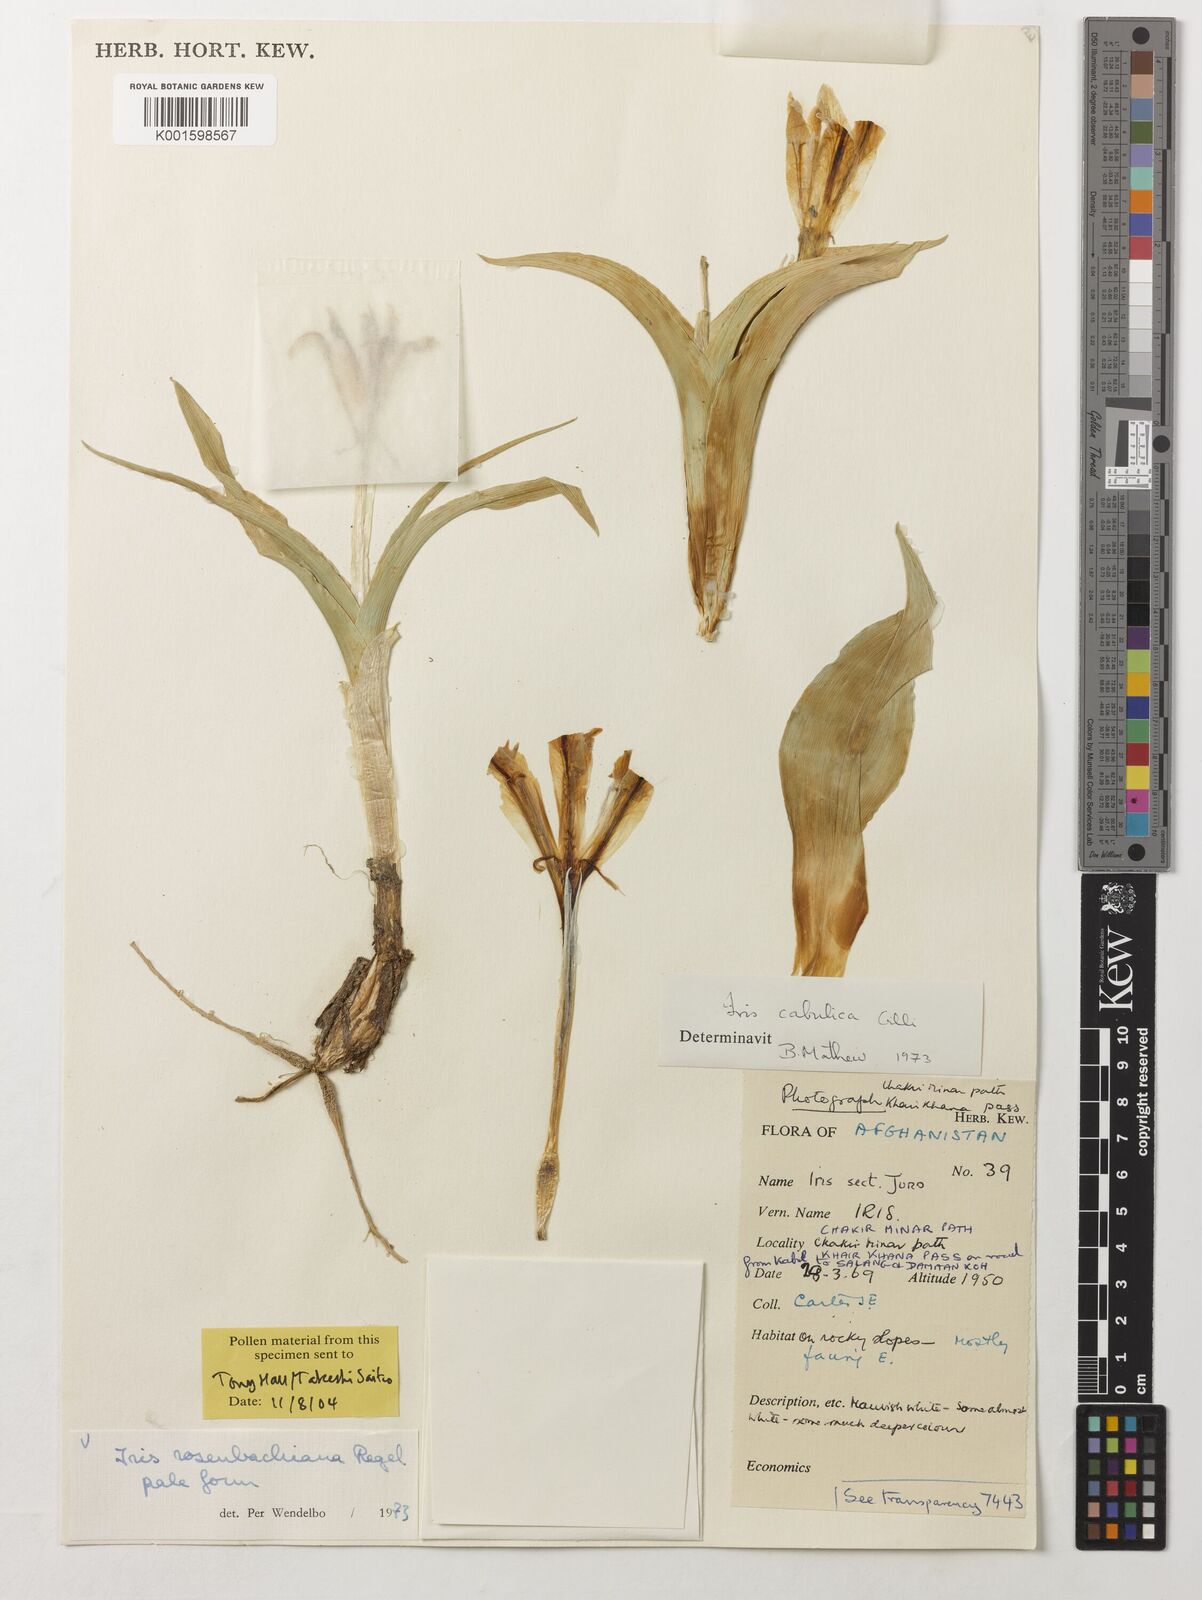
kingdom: Plantae
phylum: Tracheophyta
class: Liliopsida
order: Asparagales
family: Iridaceae
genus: Iris
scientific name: Iris cabulica
